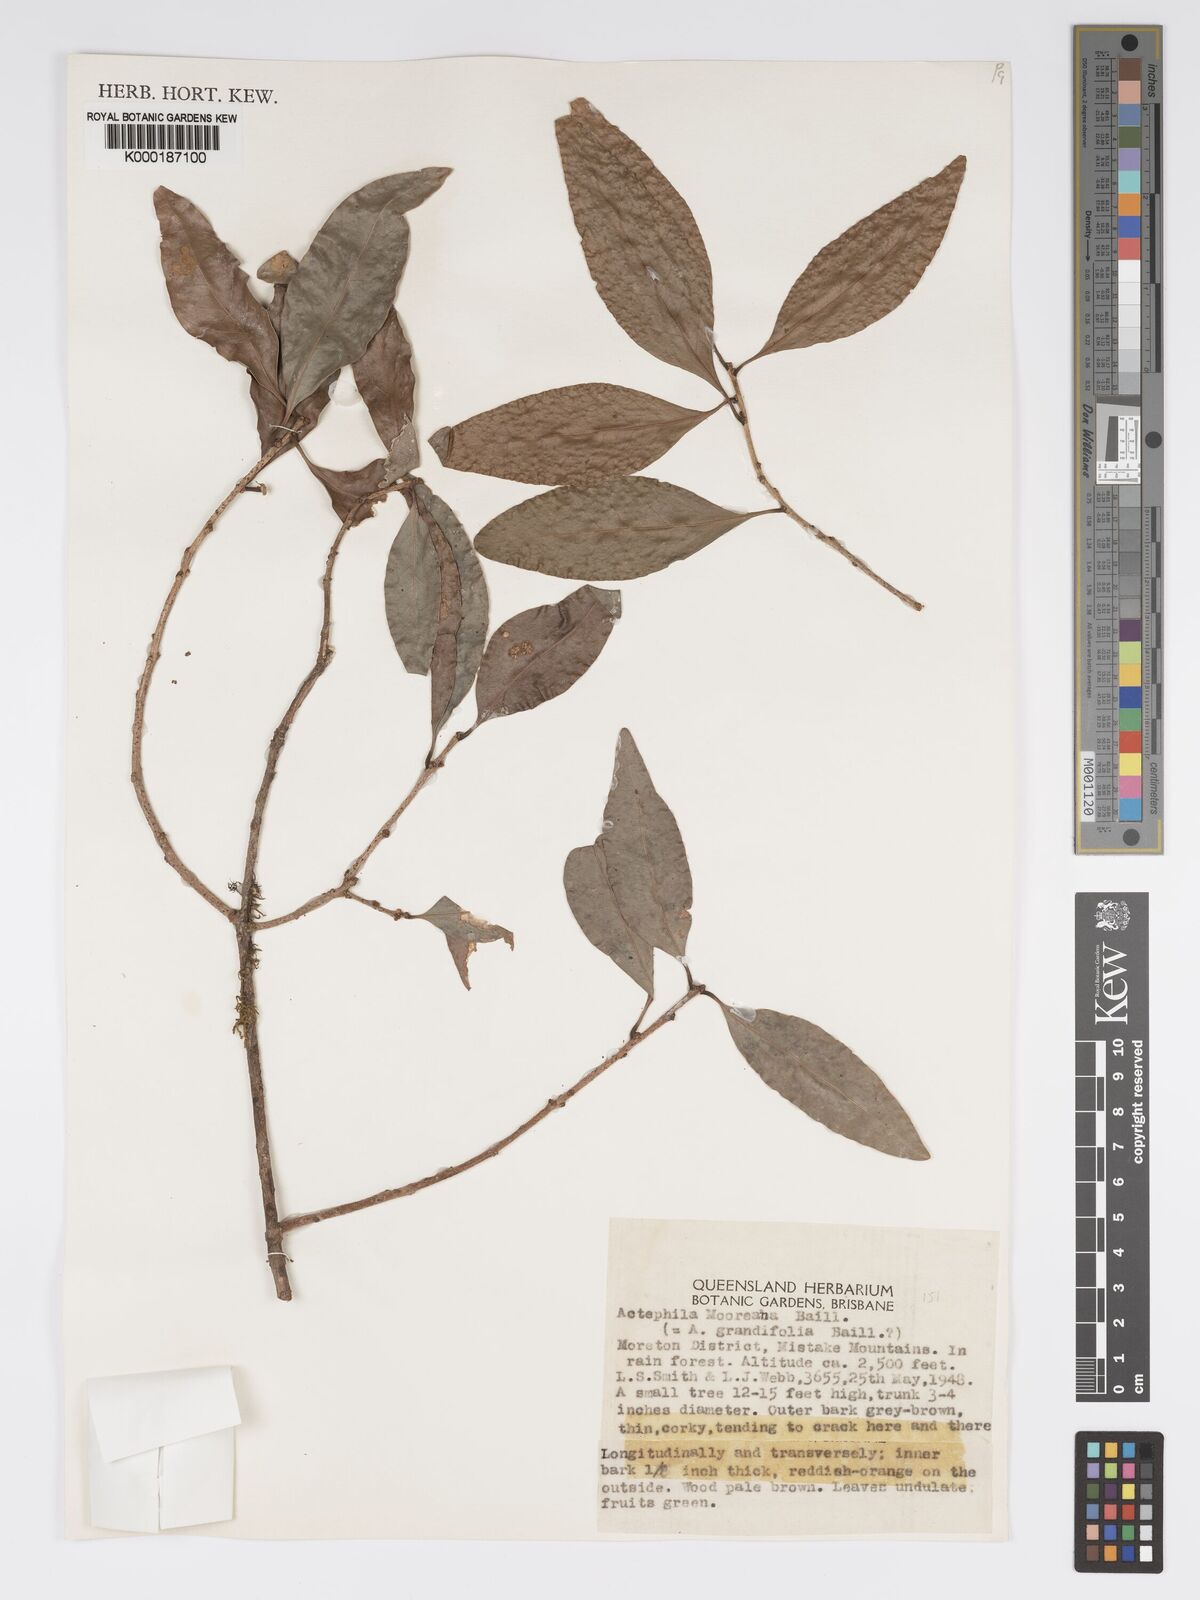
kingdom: Plantae
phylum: Tracheophyta
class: Magnoliopsida
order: Malpighiales
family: Phyllanthaceae
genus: Actephila
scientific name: Actephila lindleyi
